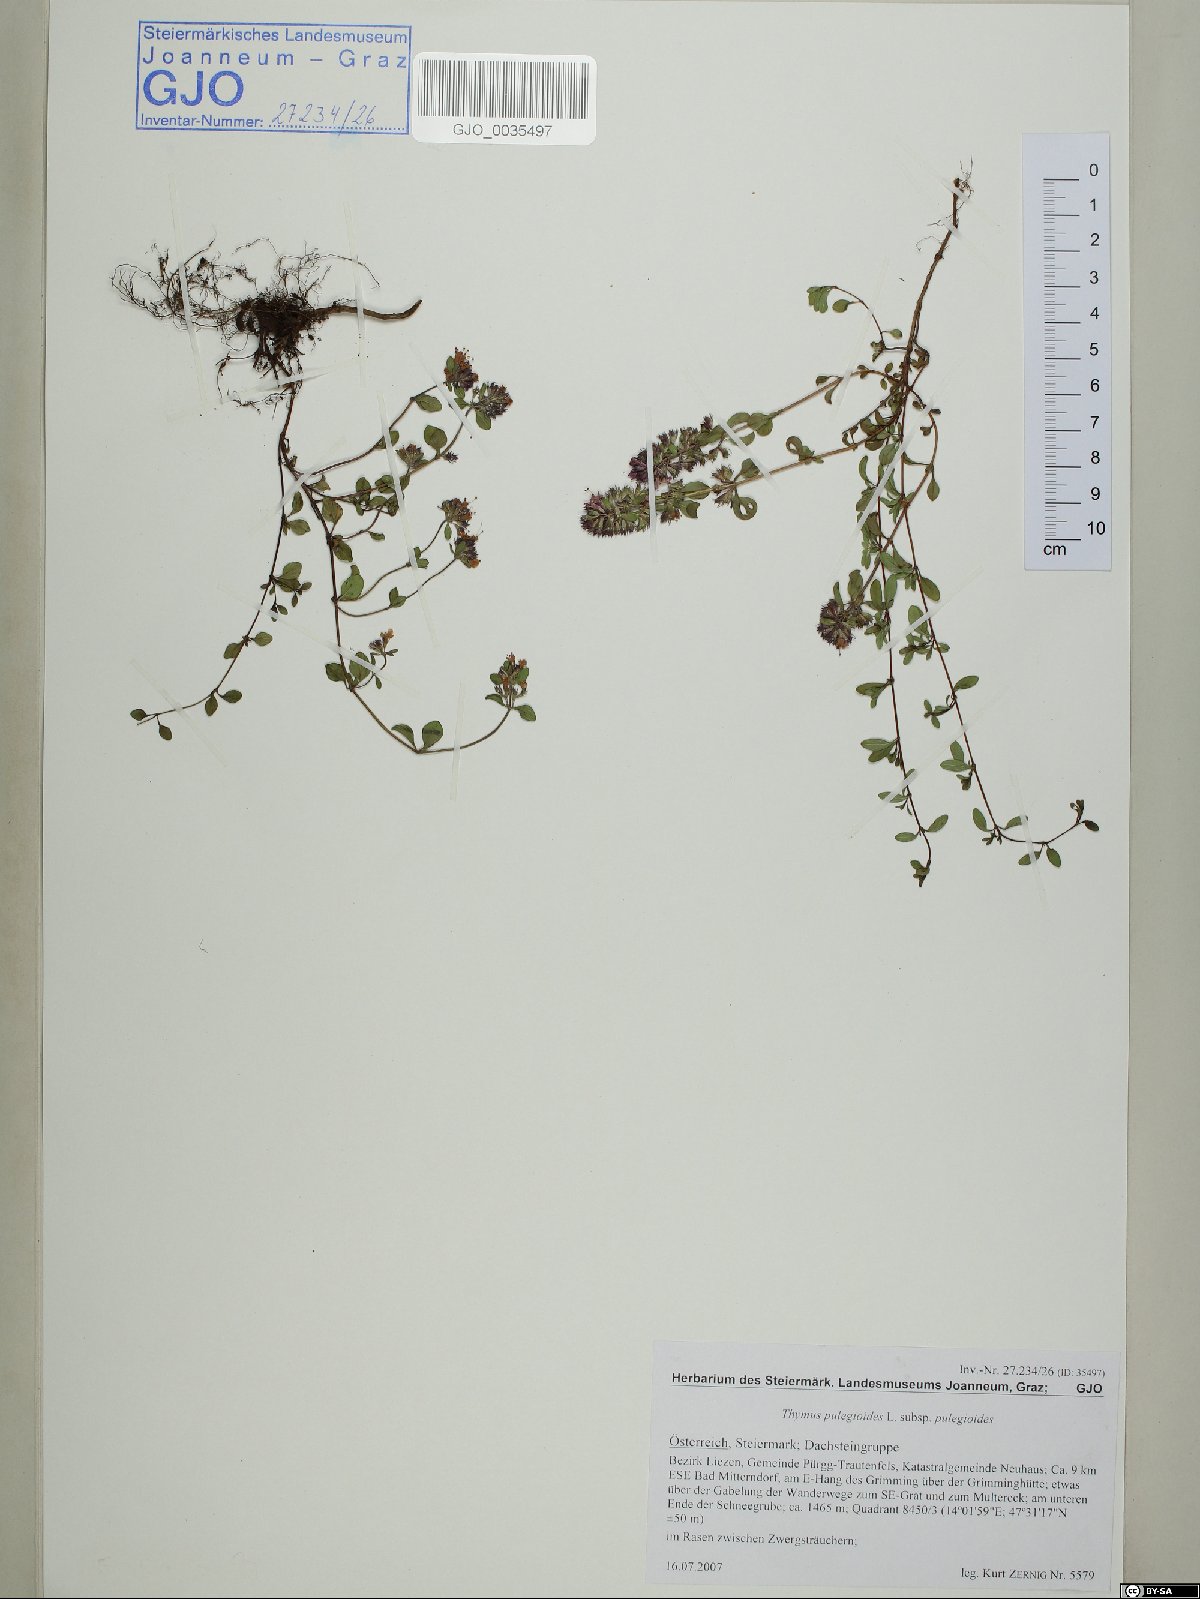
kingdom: Plantae
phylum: Tracheophyta
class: Magnoliopsida
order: Lamiales
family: Lamiaceae
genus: Thymus
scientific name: Thymus pulegioides
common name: Large thyme
